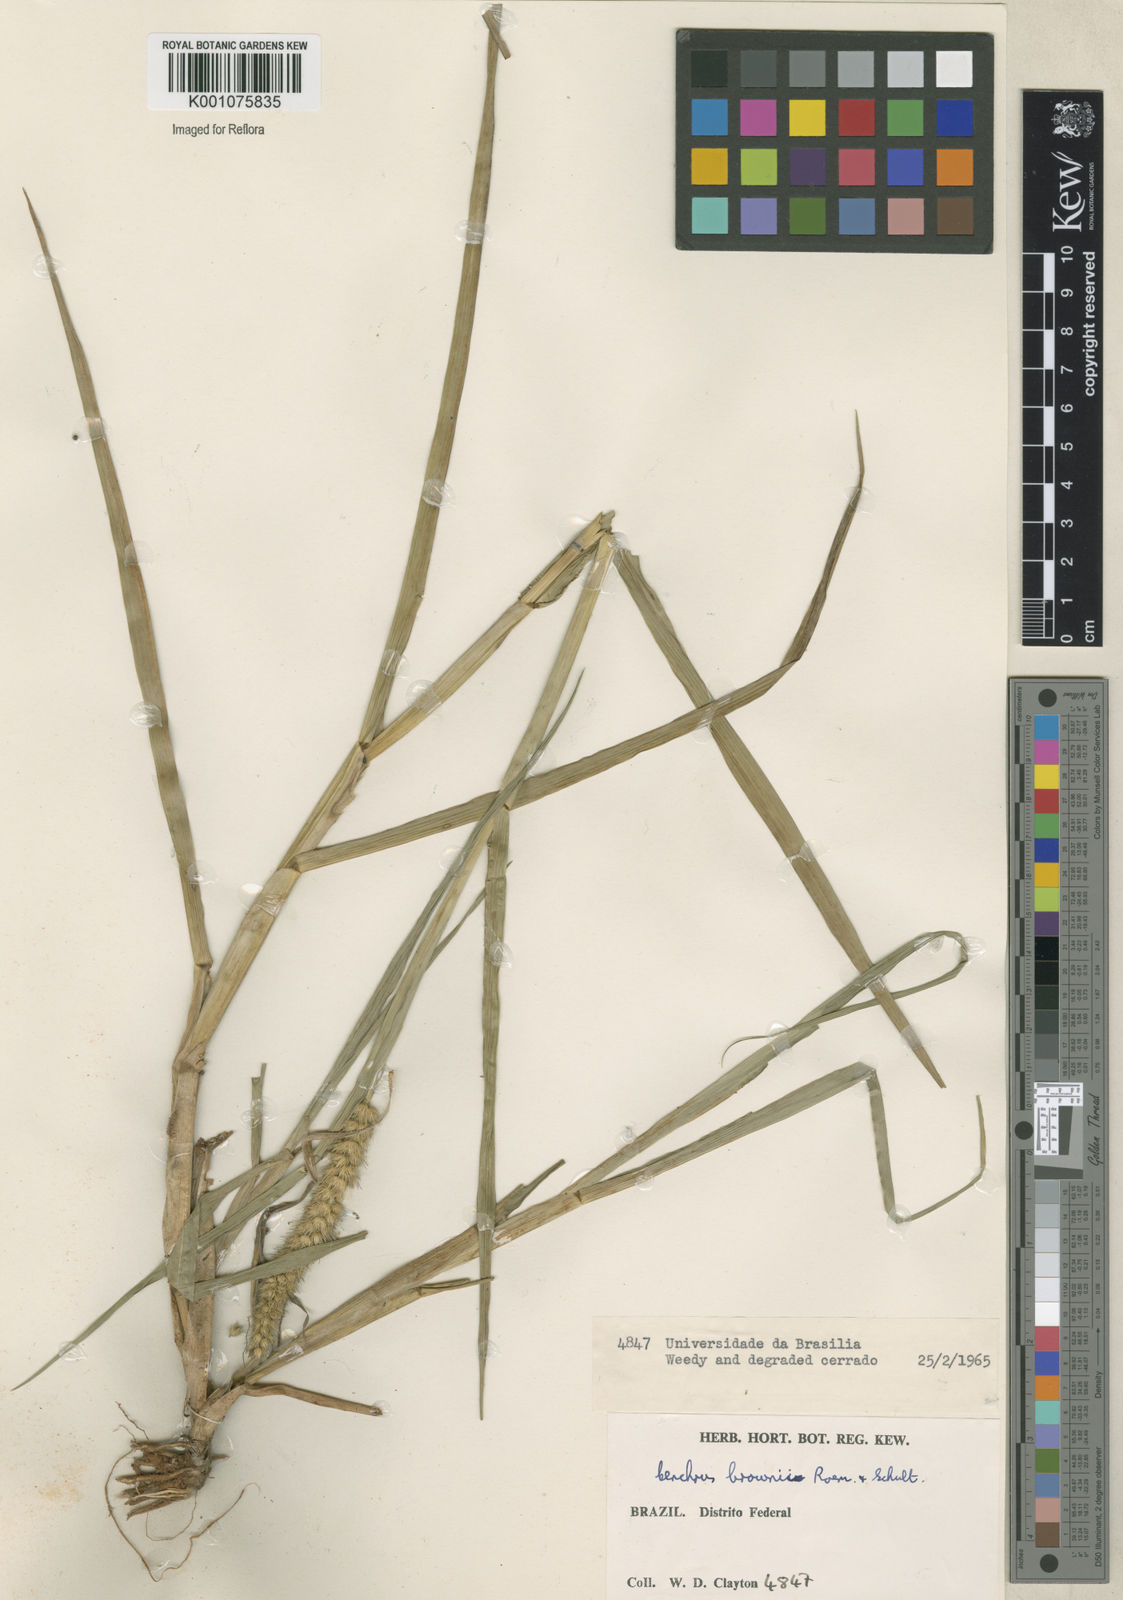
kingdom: Plantae
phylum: Tracheophyta
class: Liliopsida
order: Poales
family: Poaceae
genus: Cenchrus
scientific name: Cenchrus brownii
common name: Slim-bristle sandbur
